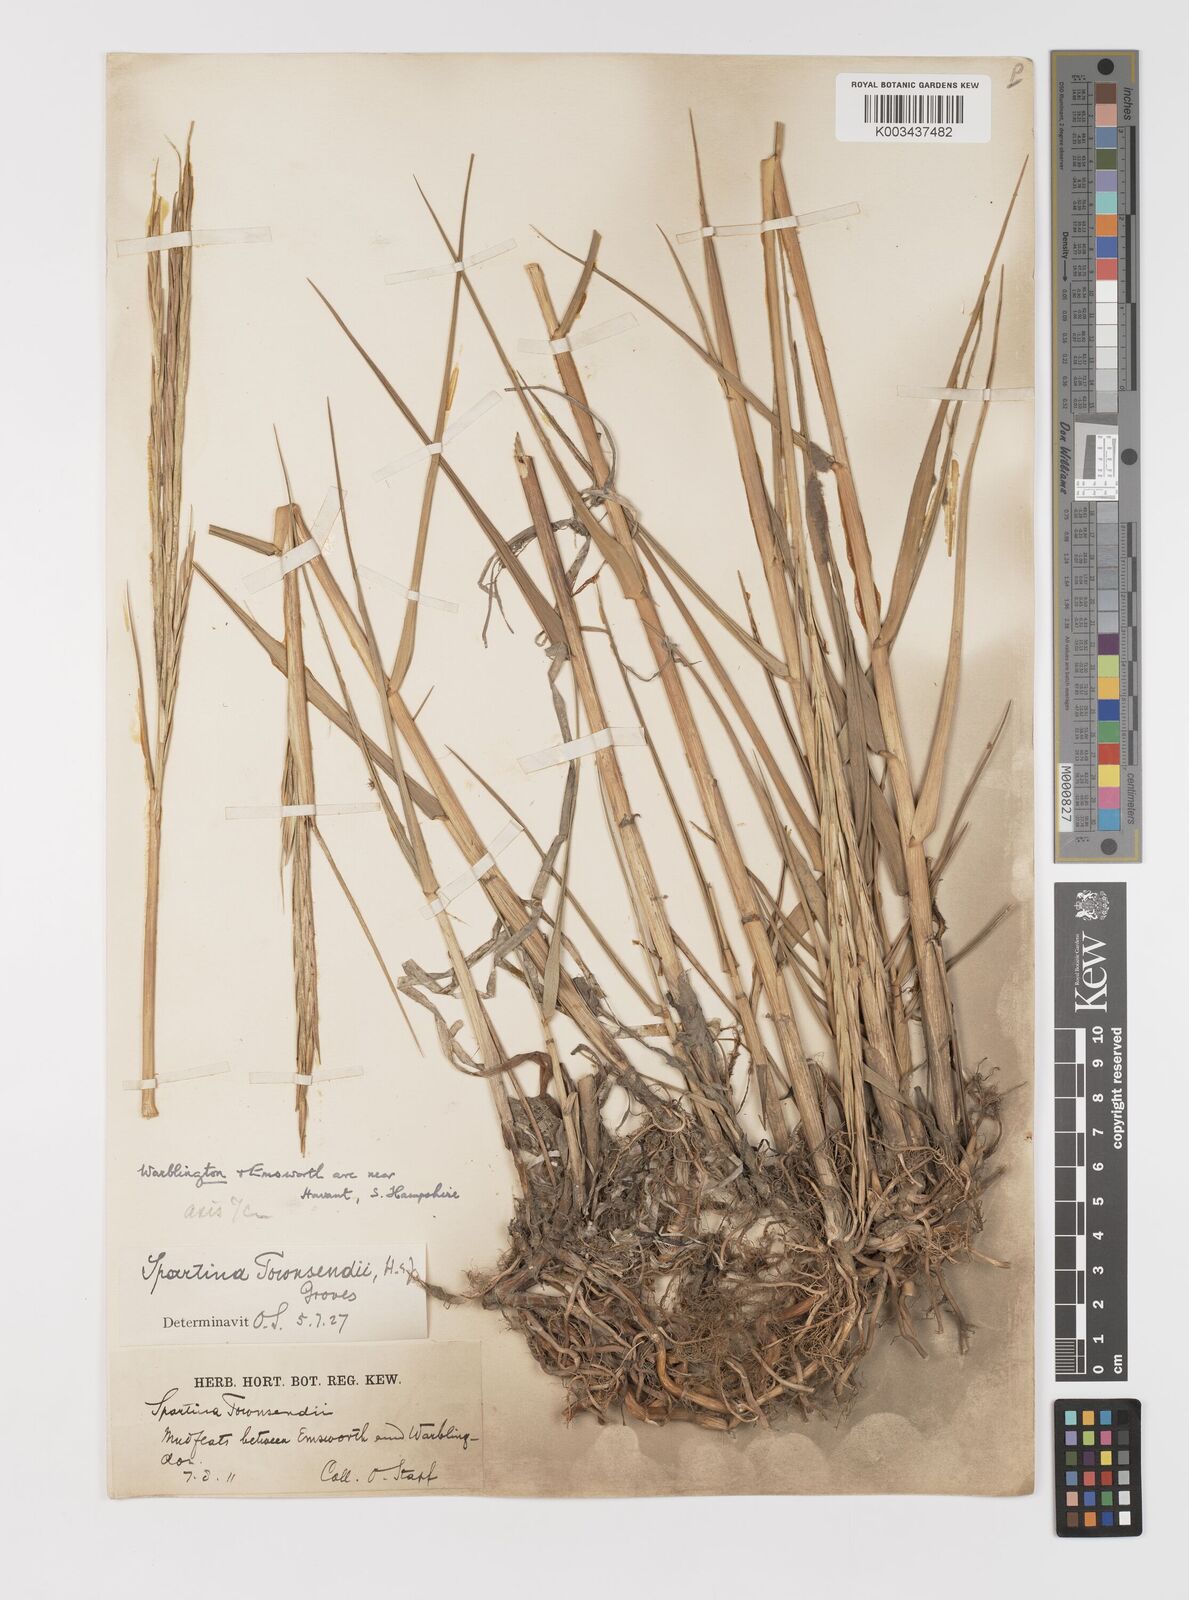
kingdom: Plantae
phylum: Tracheophyta
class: Liliopsida
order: Poales
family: Poaceae
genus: Sporobolus
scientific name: Sporobolus anglicus
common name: English cordgrass
